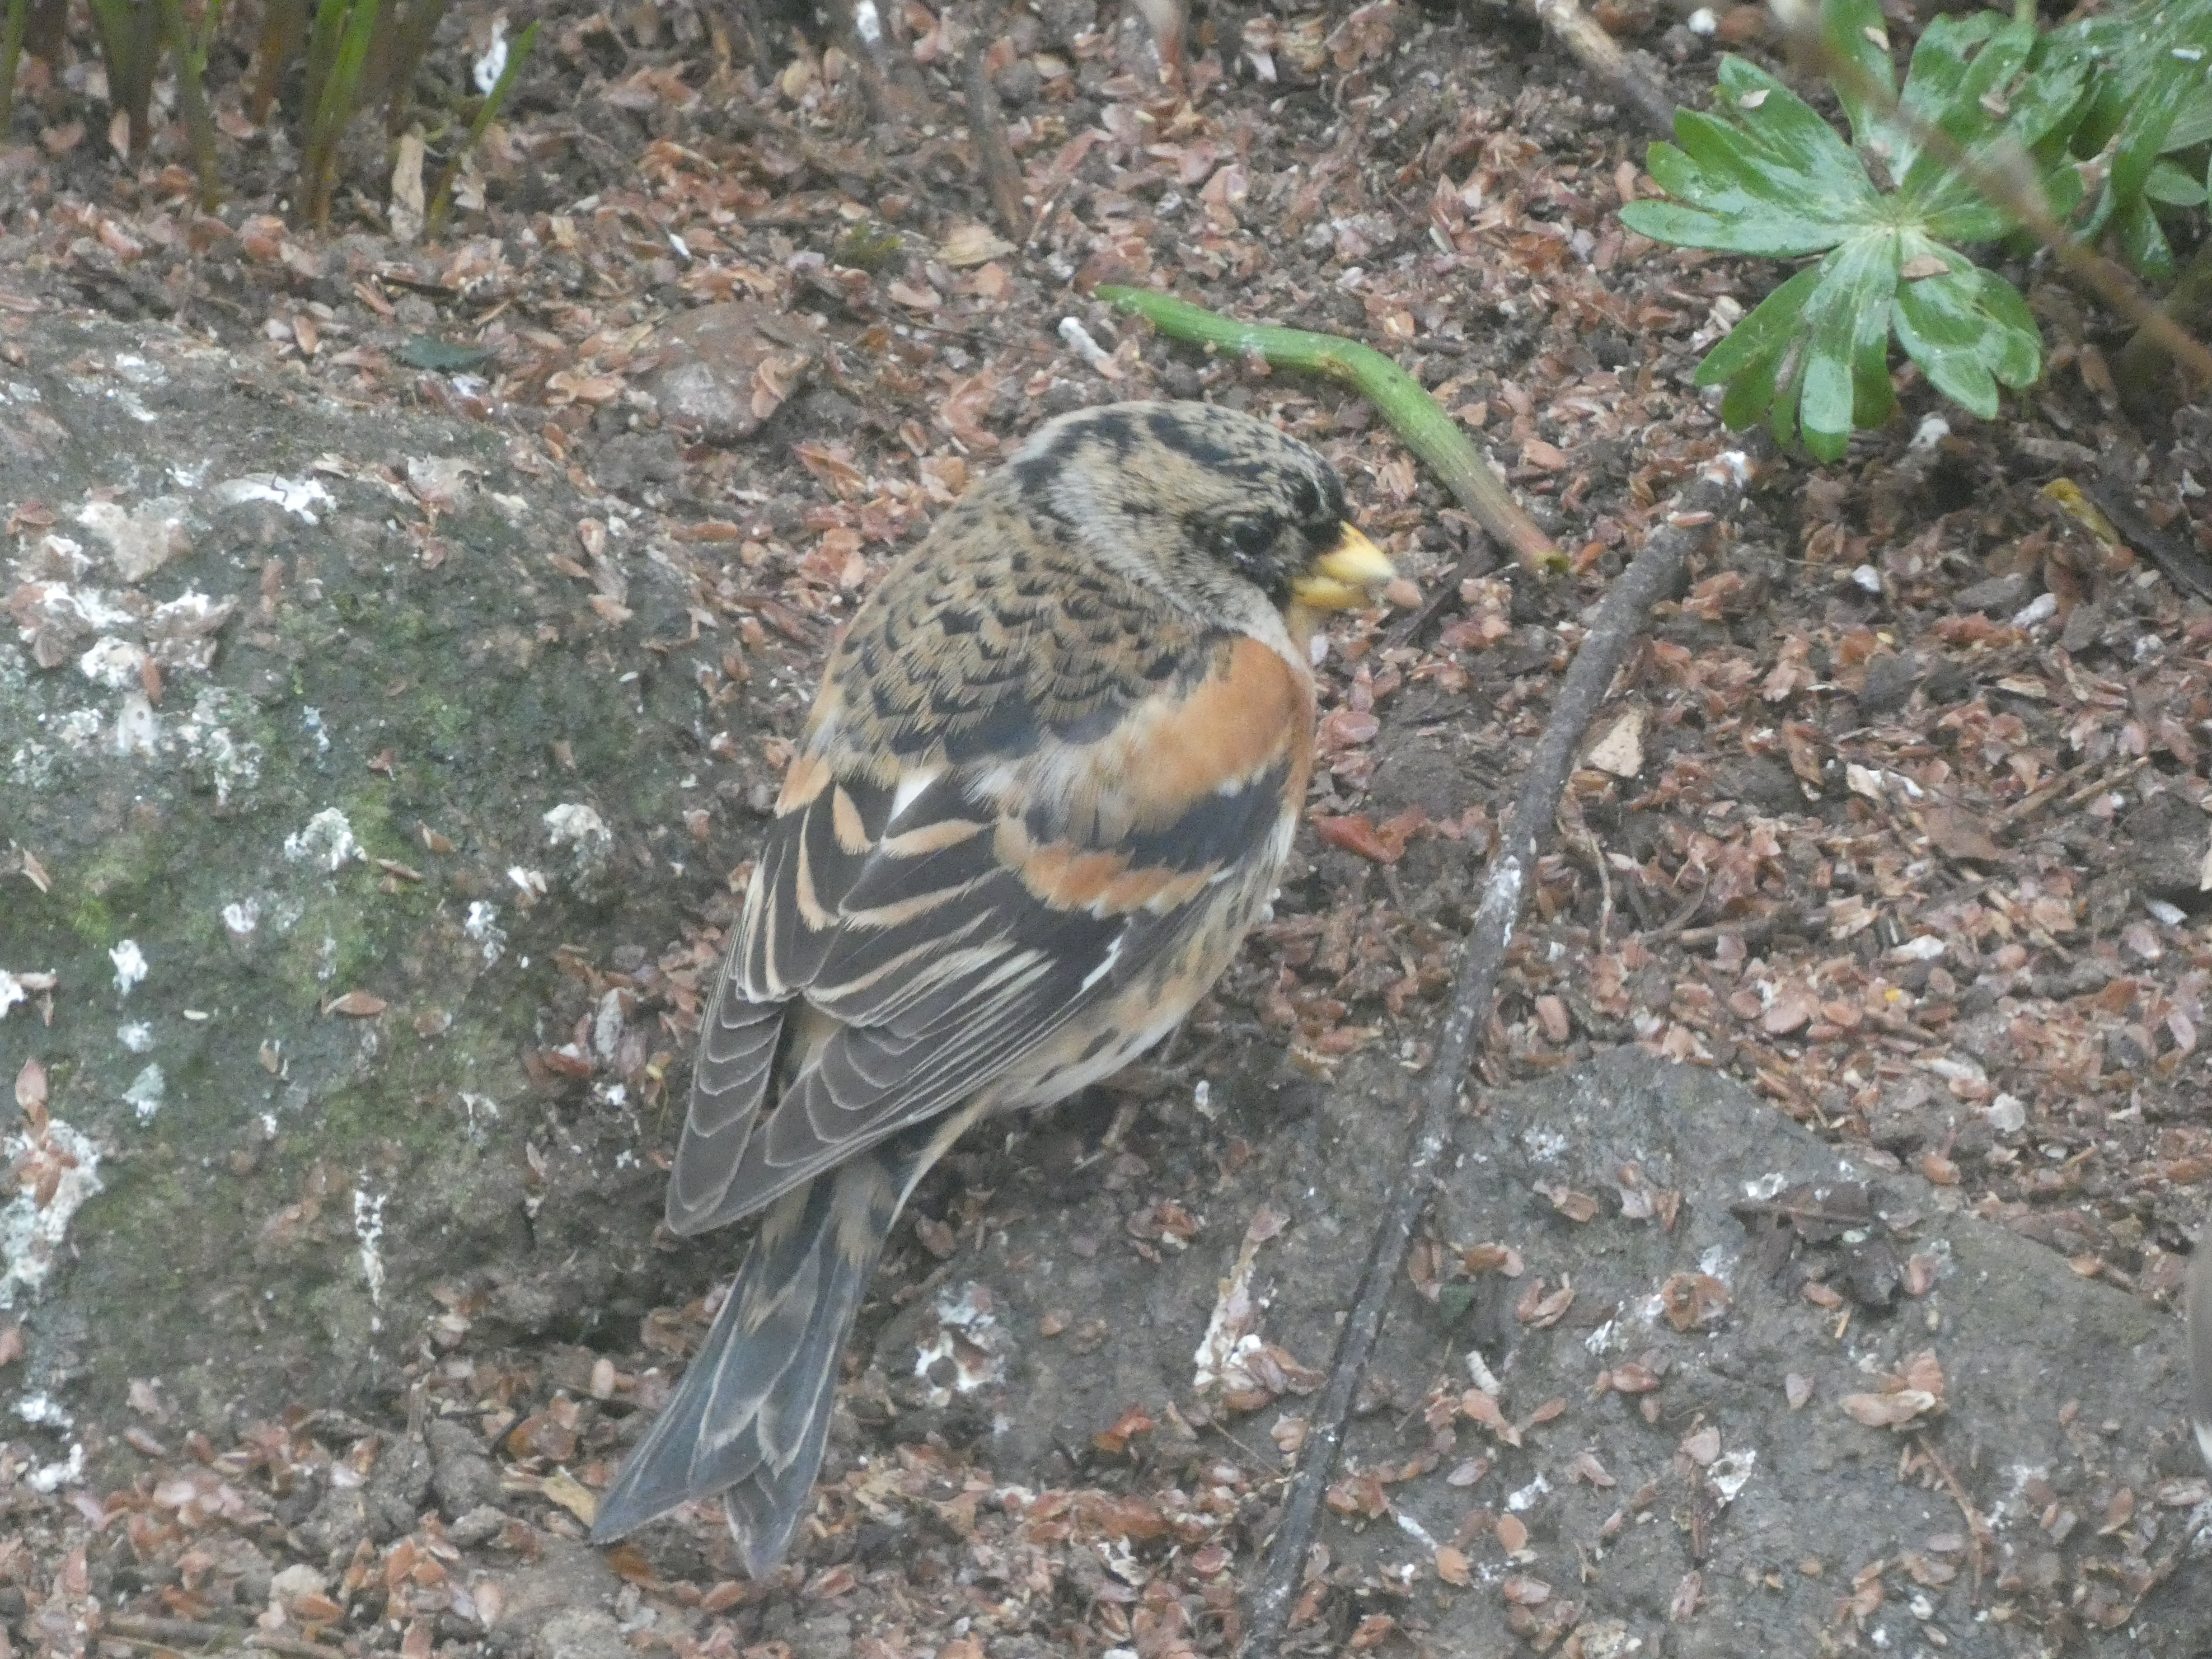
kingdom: Animalia
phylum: Chordata
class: Aves
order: Passeriformes
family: Fringillidae
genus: Fringilla
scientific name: Fringilla montifringilla
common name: Kvækerfinke
